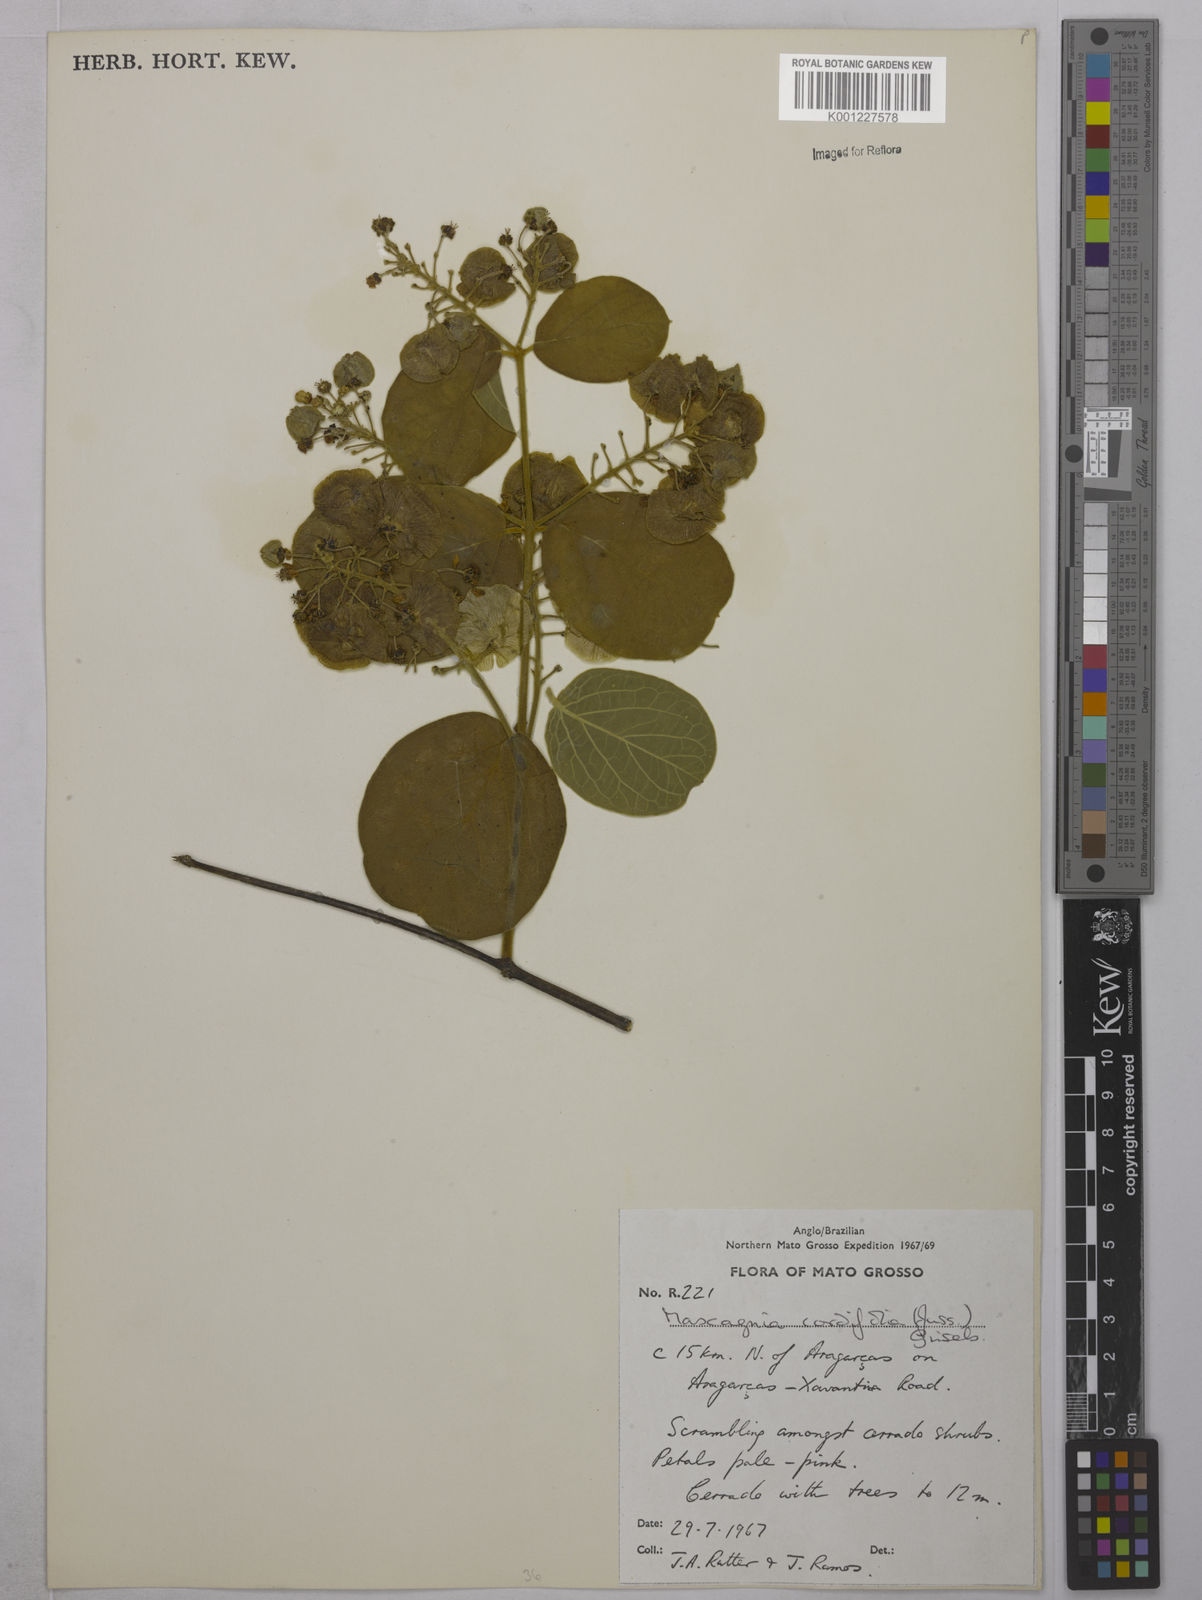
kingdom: Plantae
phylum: Tracheophyta
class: Magnoliopsida
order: Malpighiales
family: Malpighiaceae
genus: Mascagnia
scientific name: Mascagnia cordifolia
